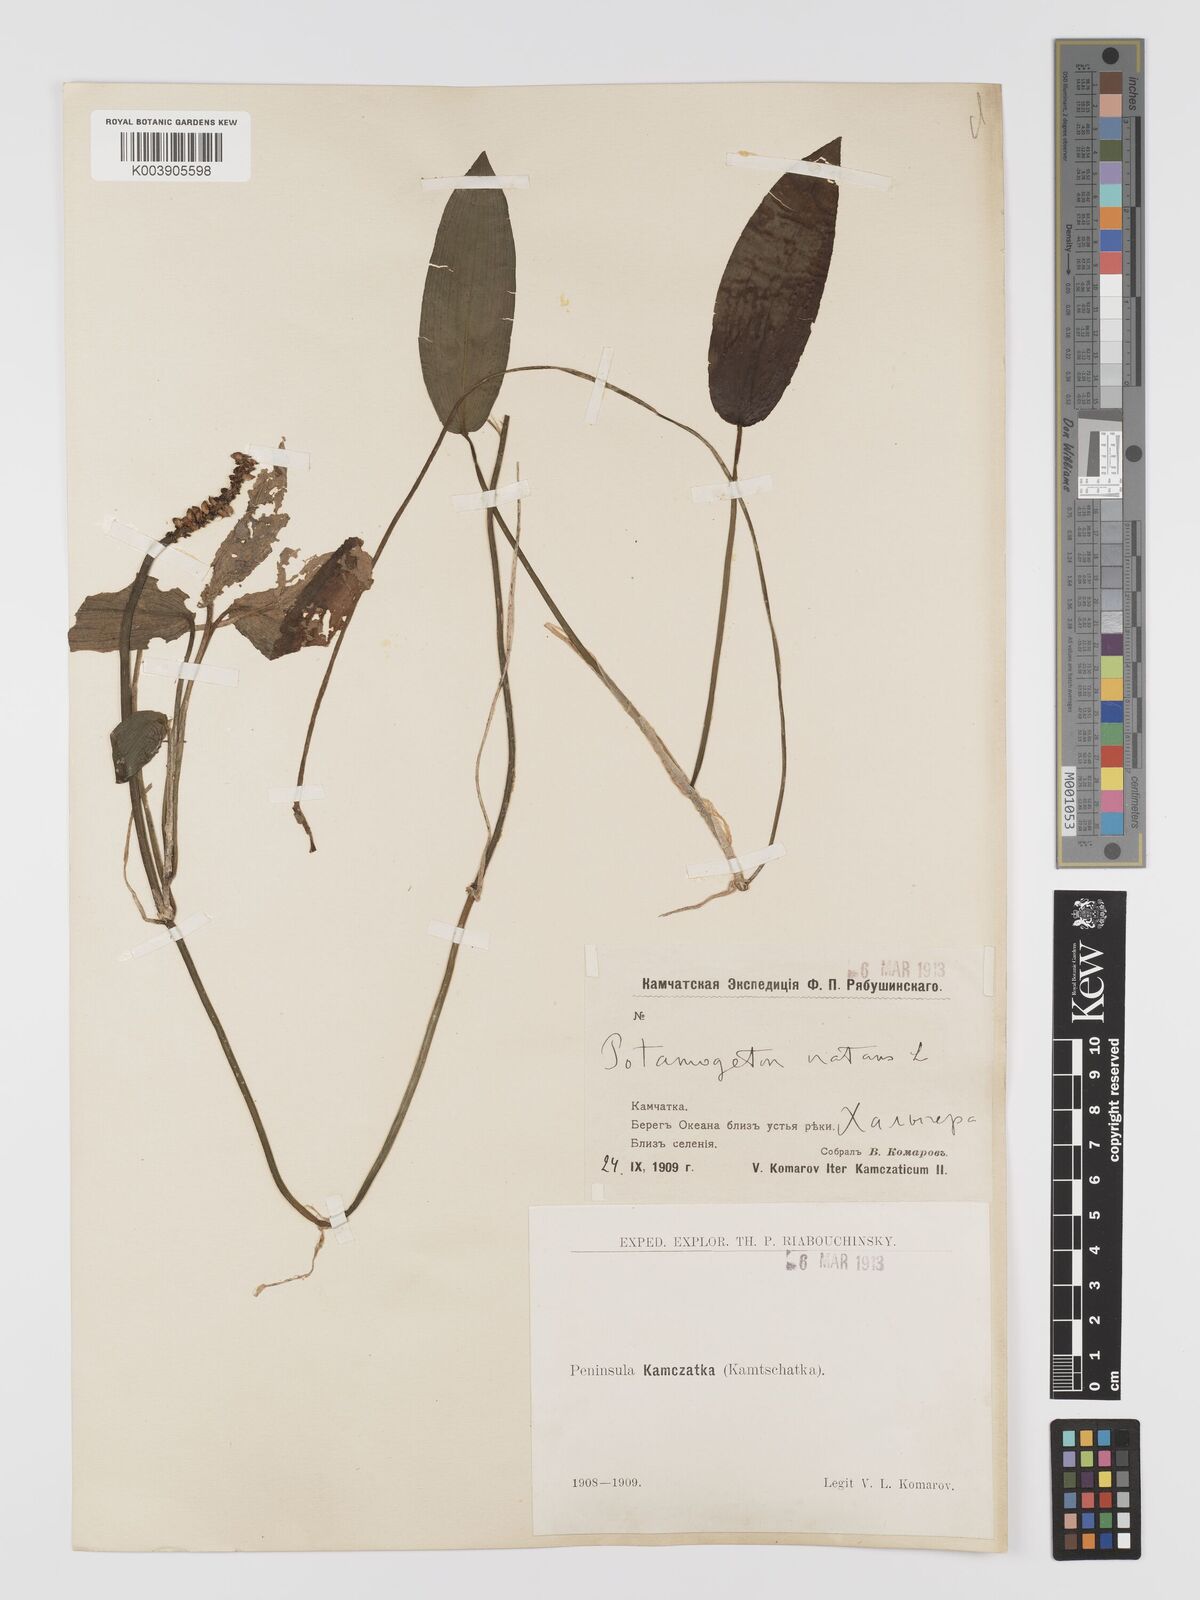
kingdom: Plantae
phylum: Tracheophyta
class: Liliopsida
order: Alismatales
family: Potamogetonaceae
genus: Potamogeton
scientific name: Potamogeton natans
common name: Broad-leaved pondweed
